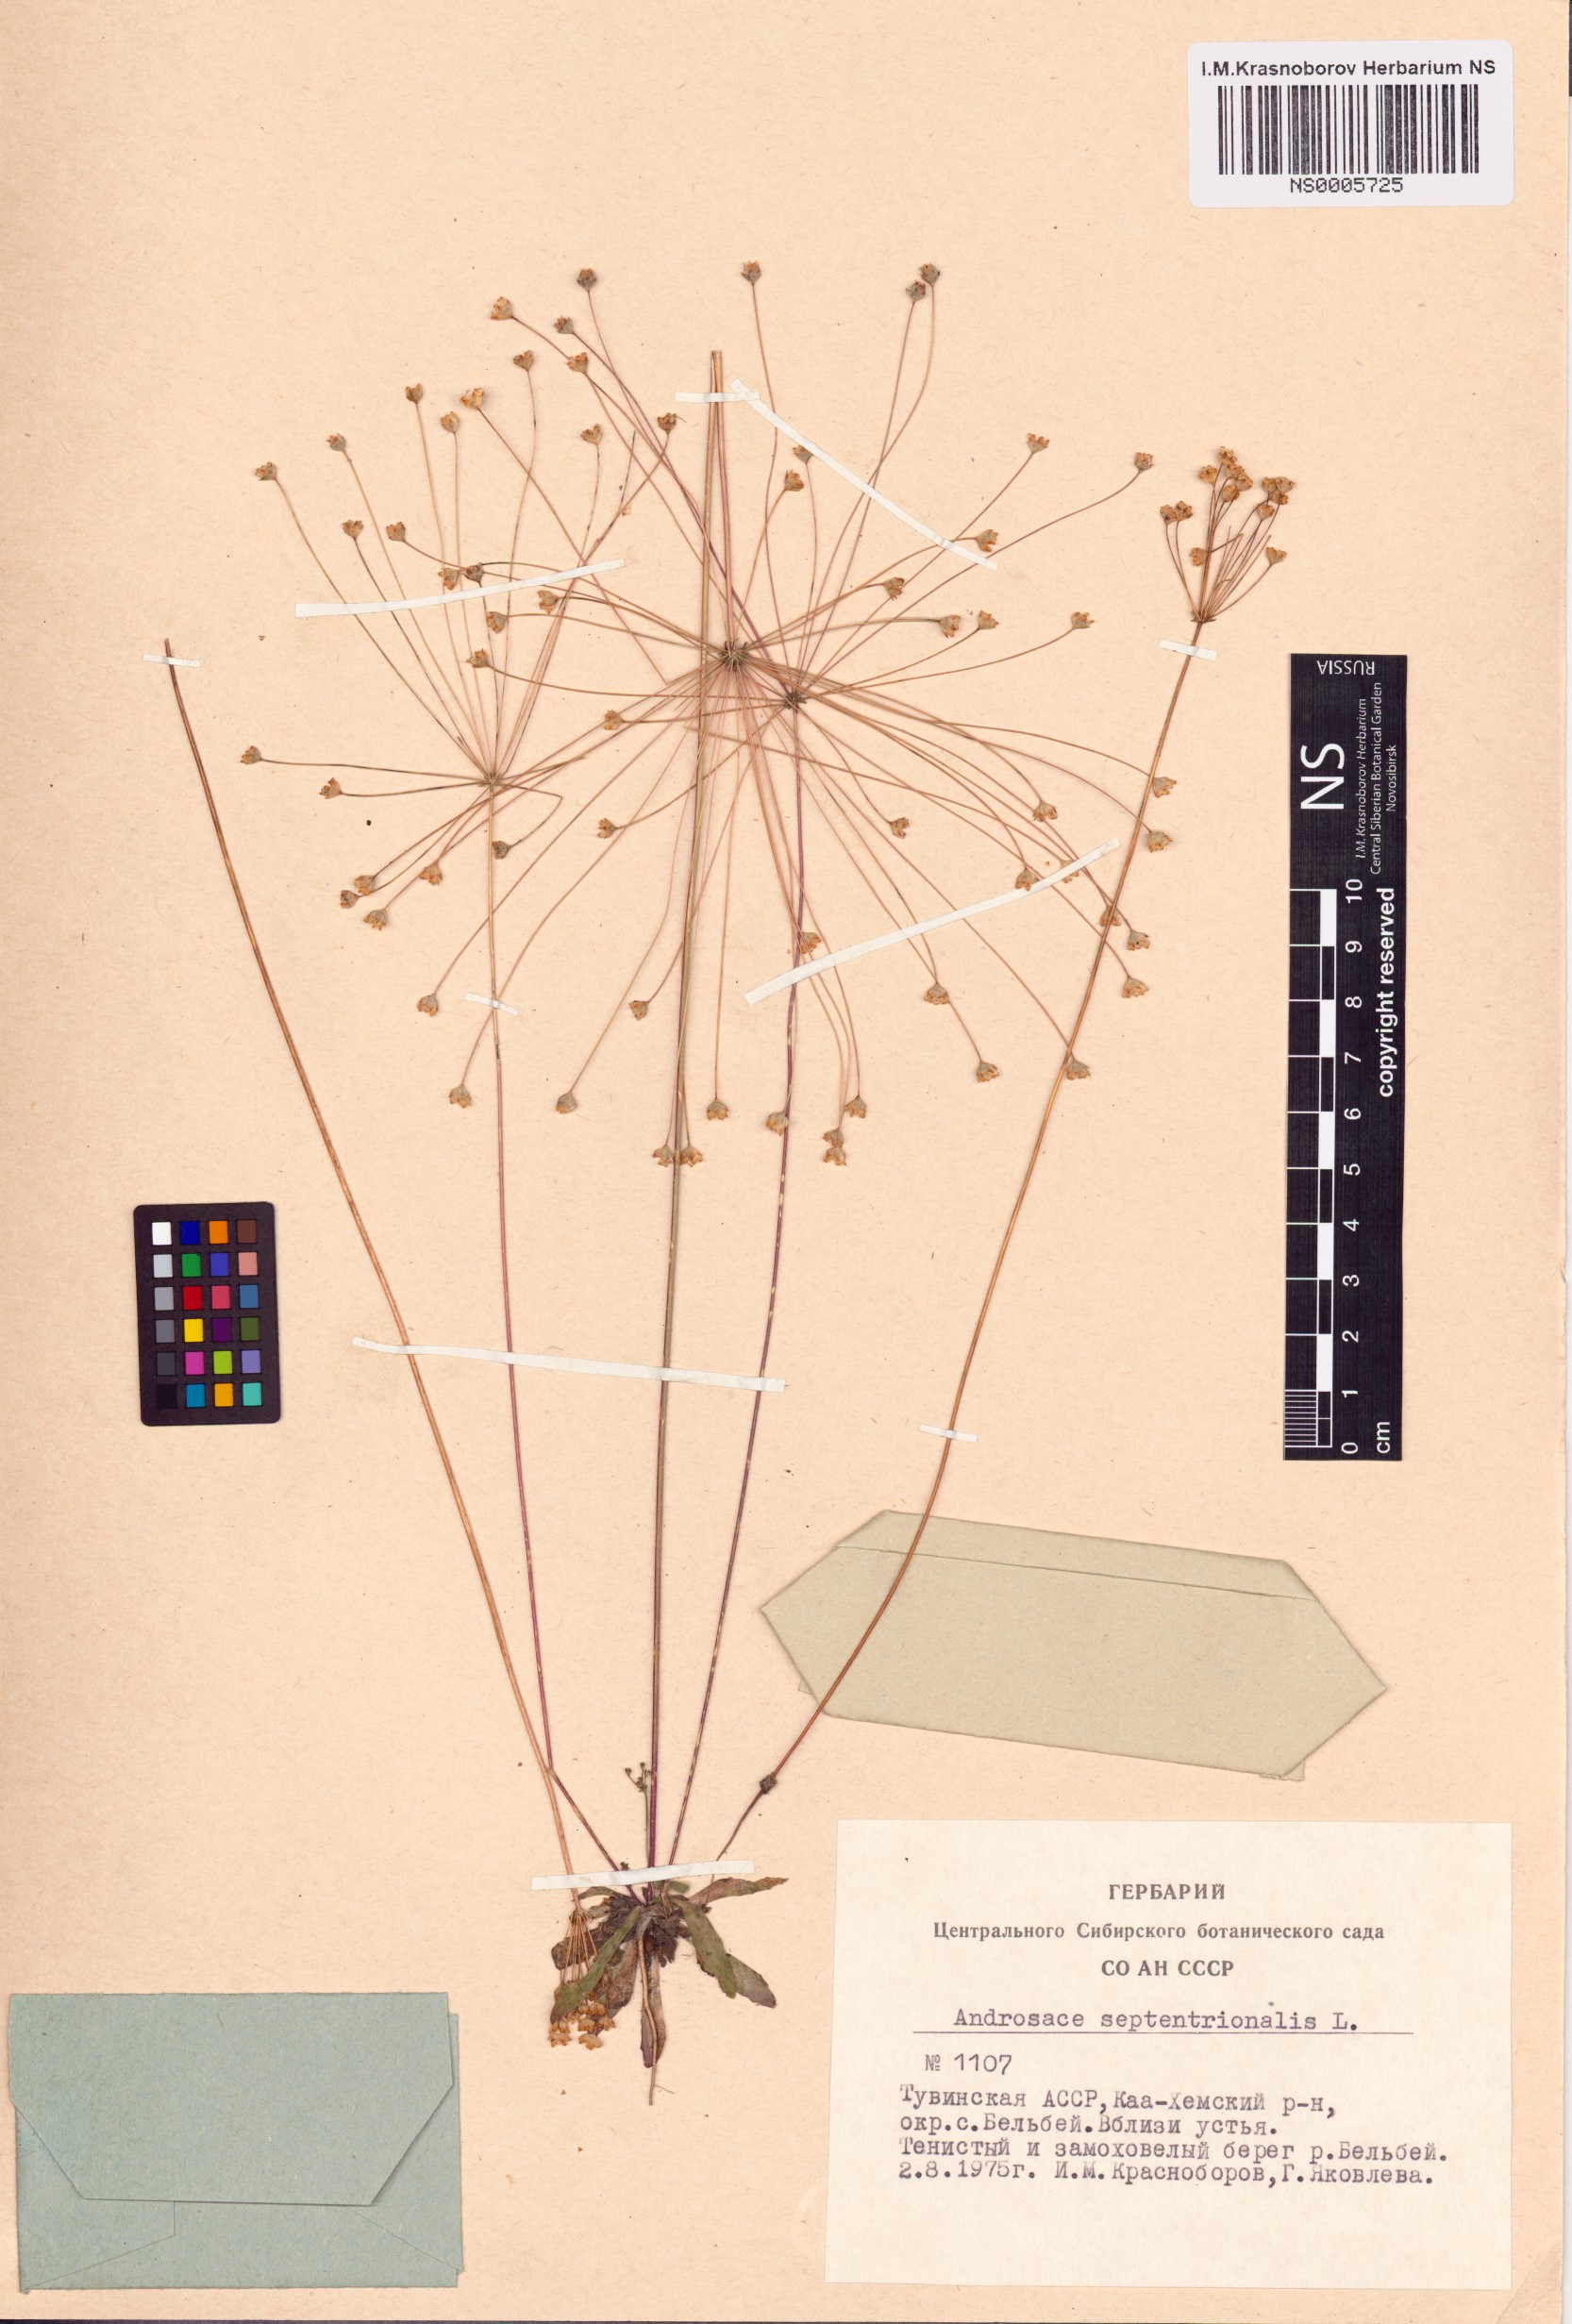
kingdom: Plantae
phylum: Tracheophyta
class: Magnoliopsida
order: Ericales
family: Primulaceae
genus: Androsace
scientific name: Androsace septentrionalis
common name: Hairy northern fairy-candelabra
